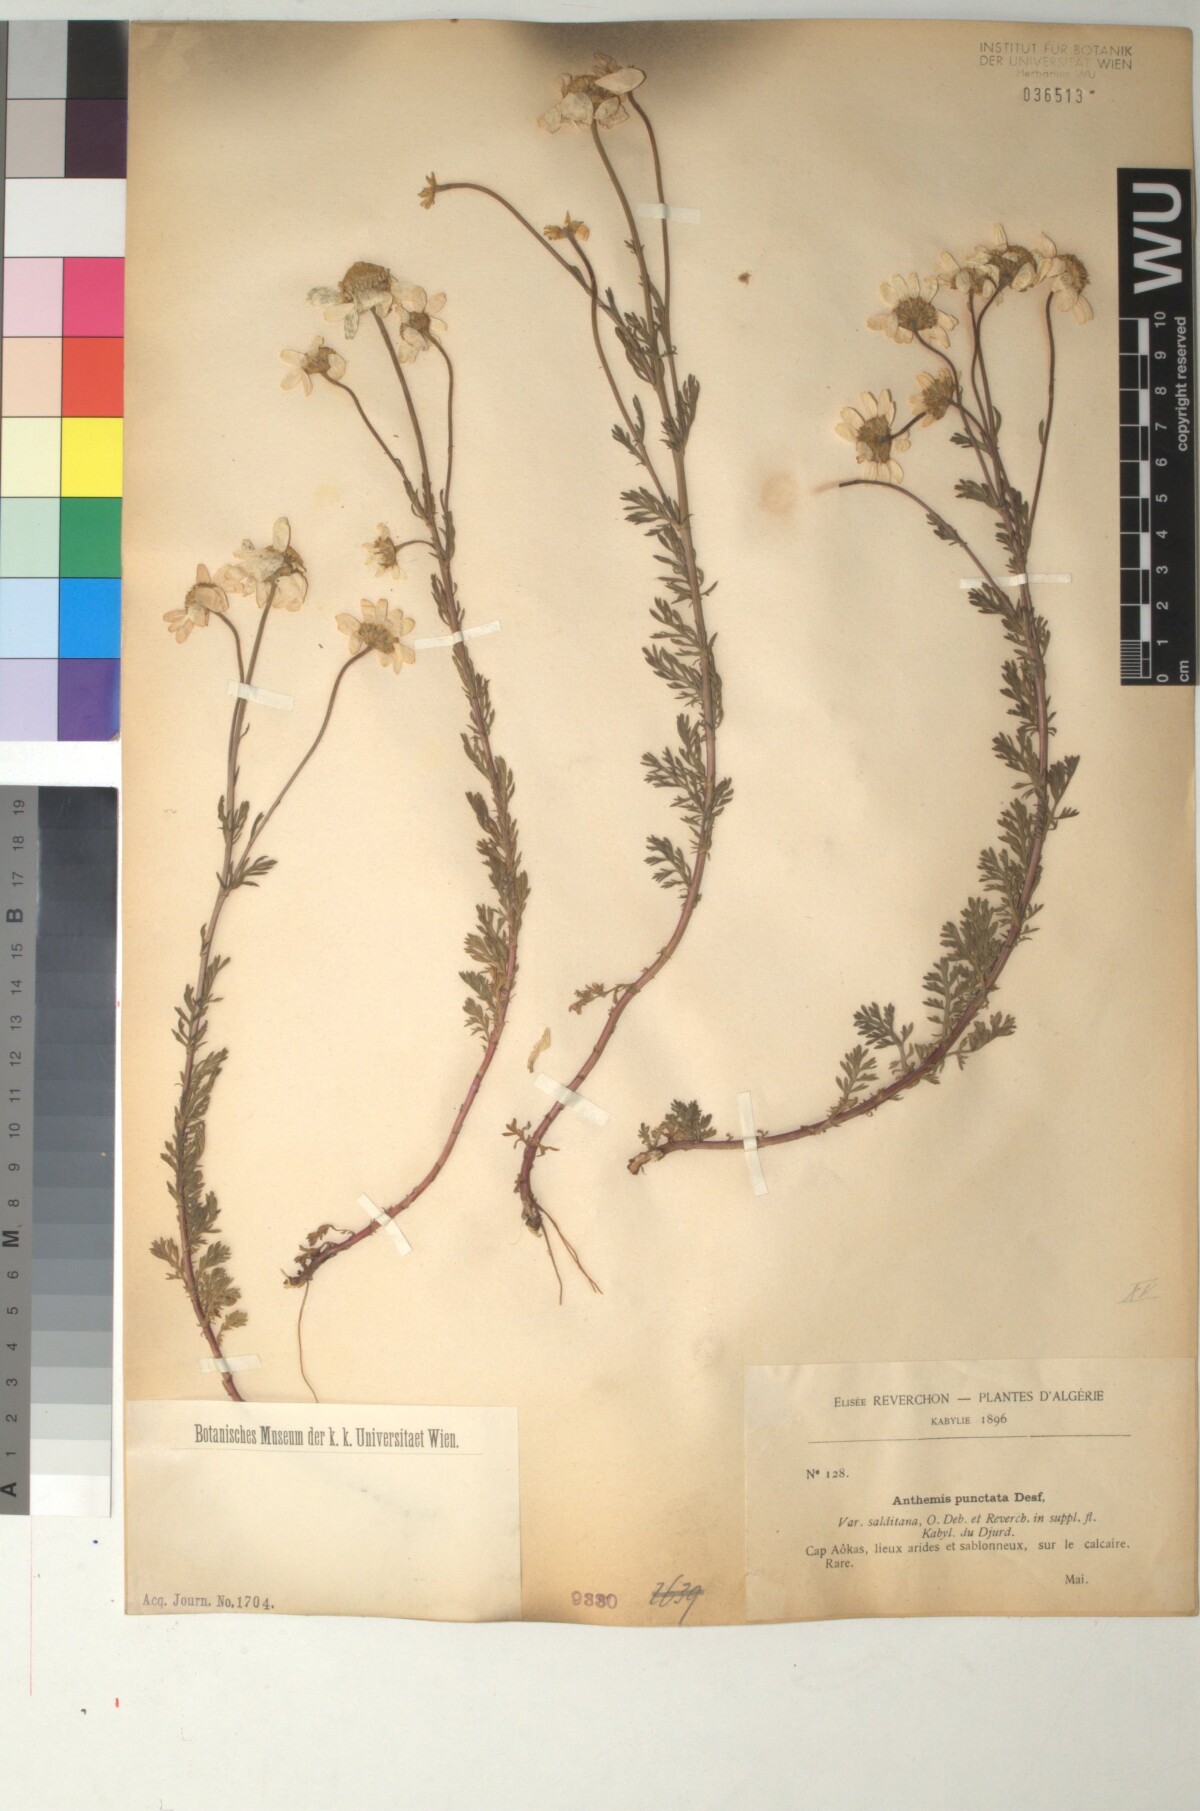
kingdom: Plantae
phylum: Tracheophyta
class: Magnoliopsida
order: Asterales
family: Asteraceae
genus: Anthemis
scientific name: Anthemis punctata
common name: Sicilian chamomile
